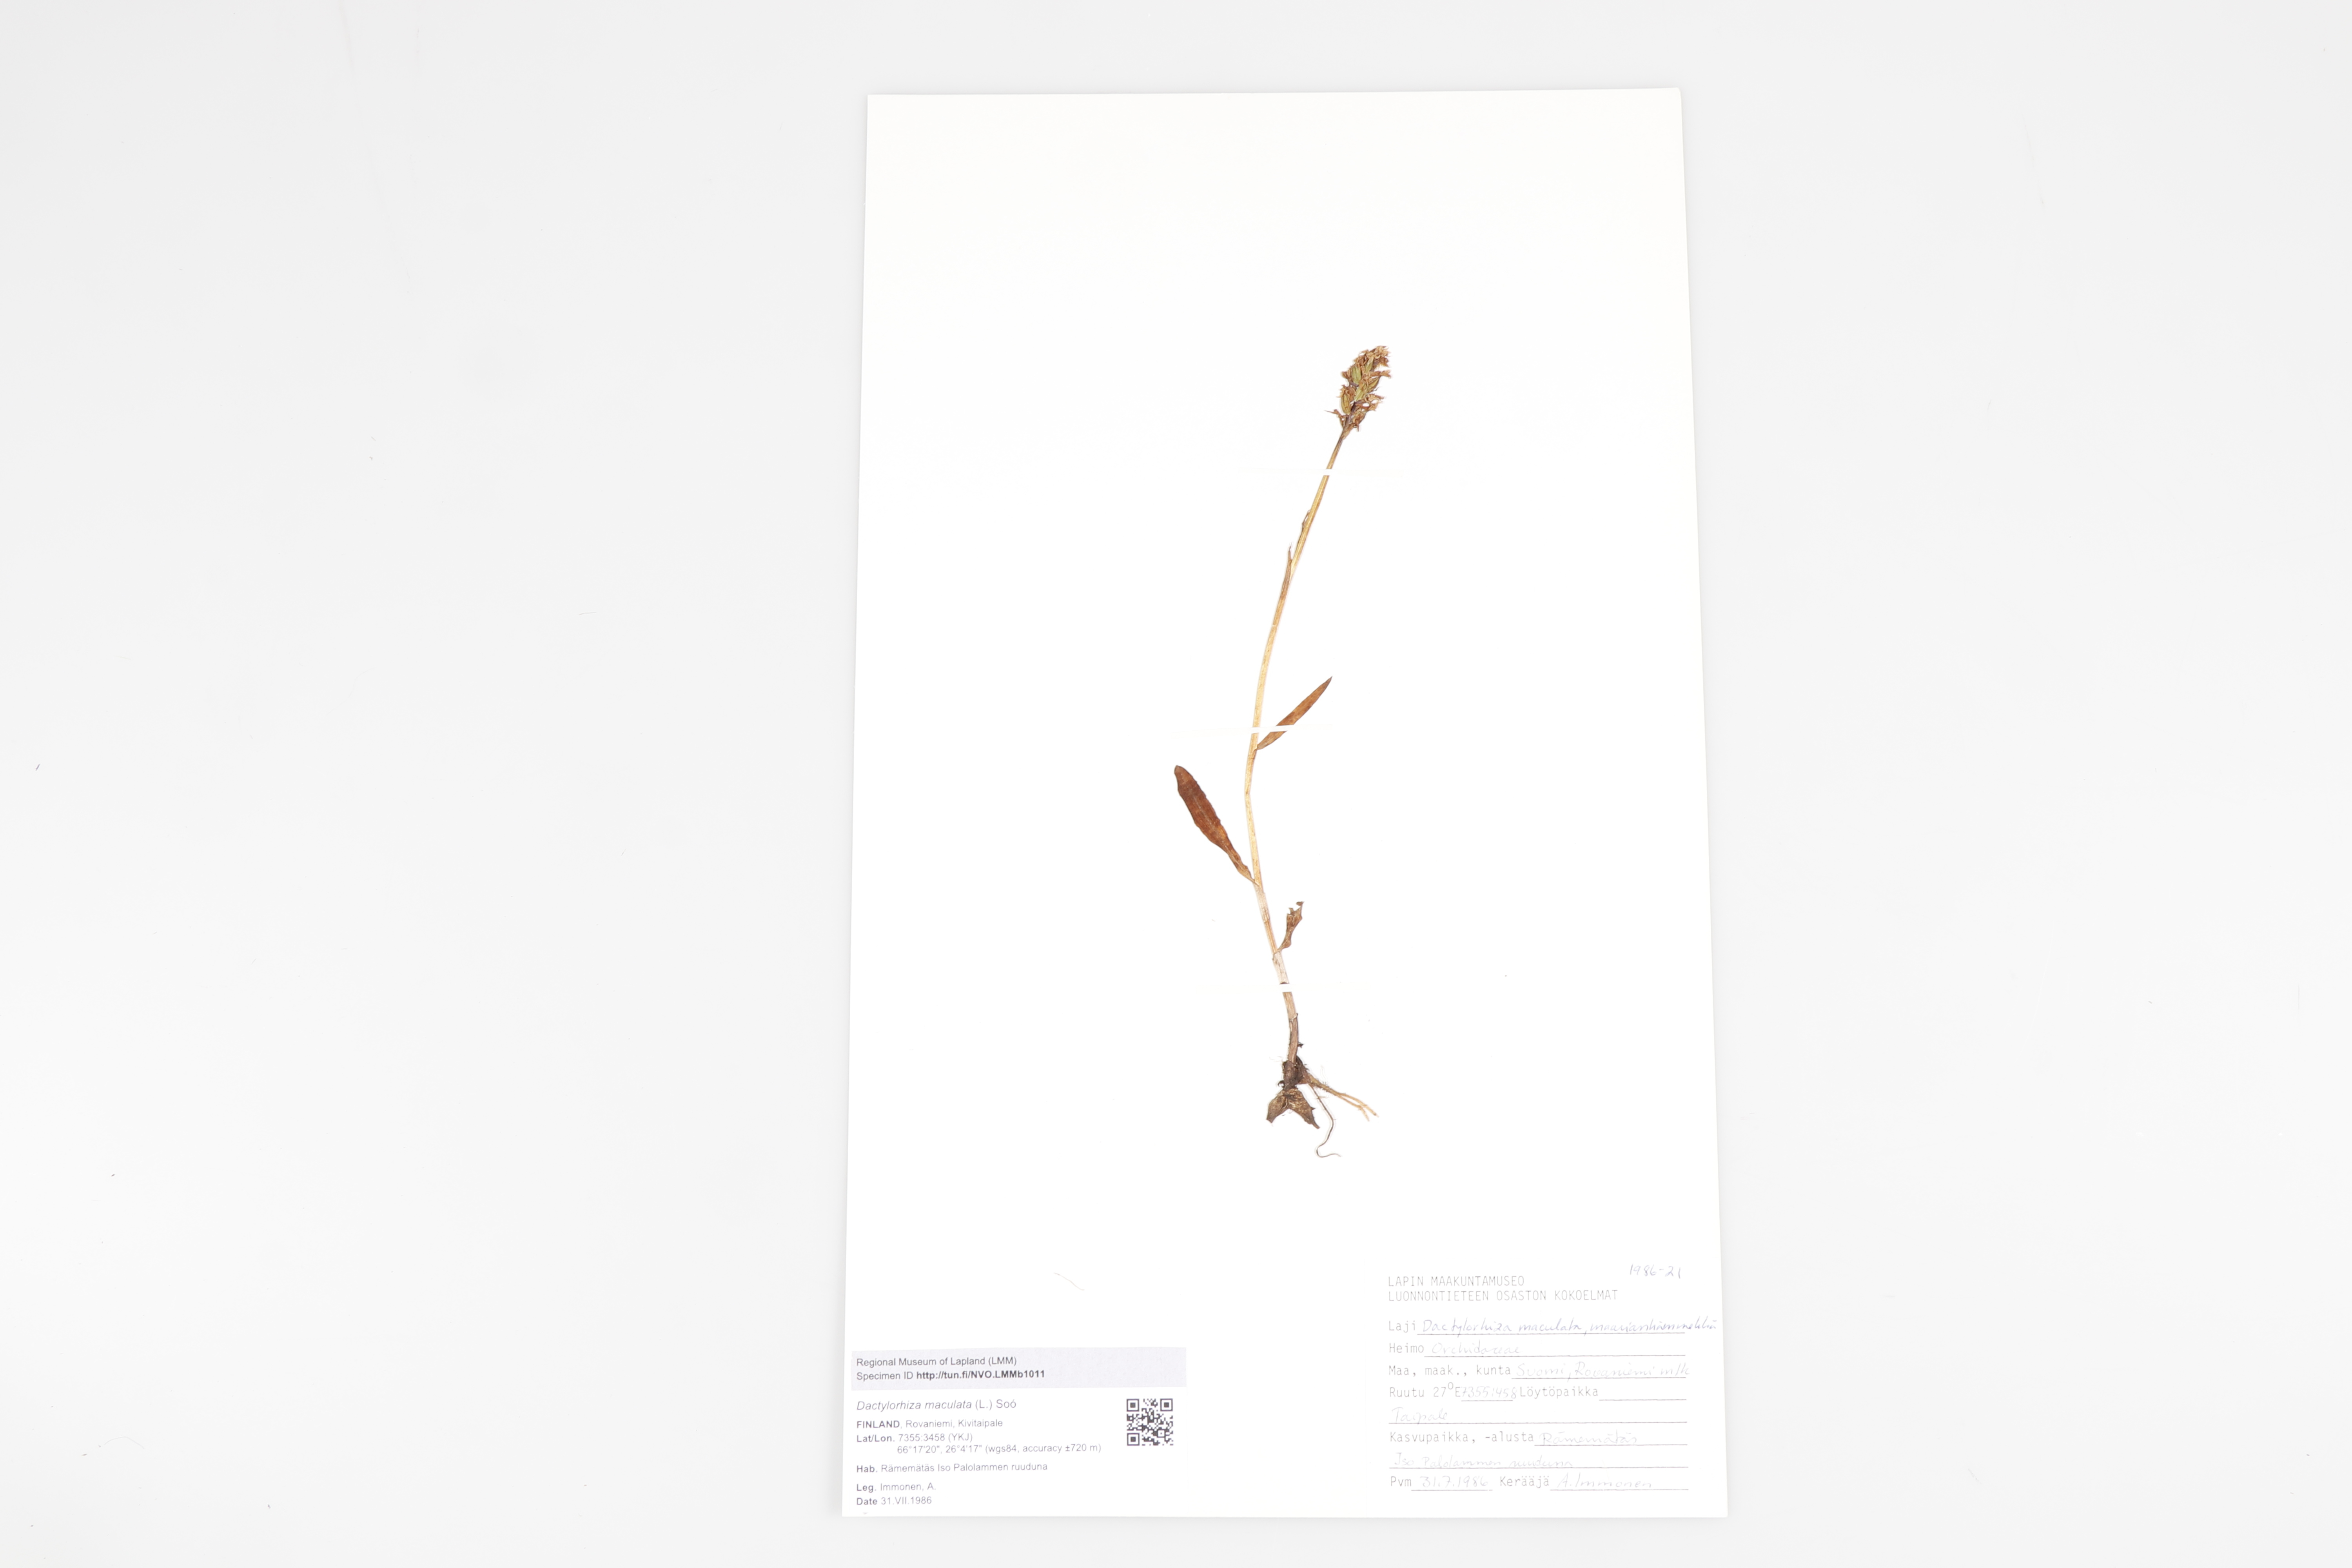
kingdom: Plantae
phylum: Tracheophyta
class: Liliopsida
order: Asparagales
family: Orchidaceae
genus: Dactylorhiza
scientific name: Dactylorhiza maculata
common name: Heath spotted-orchid
